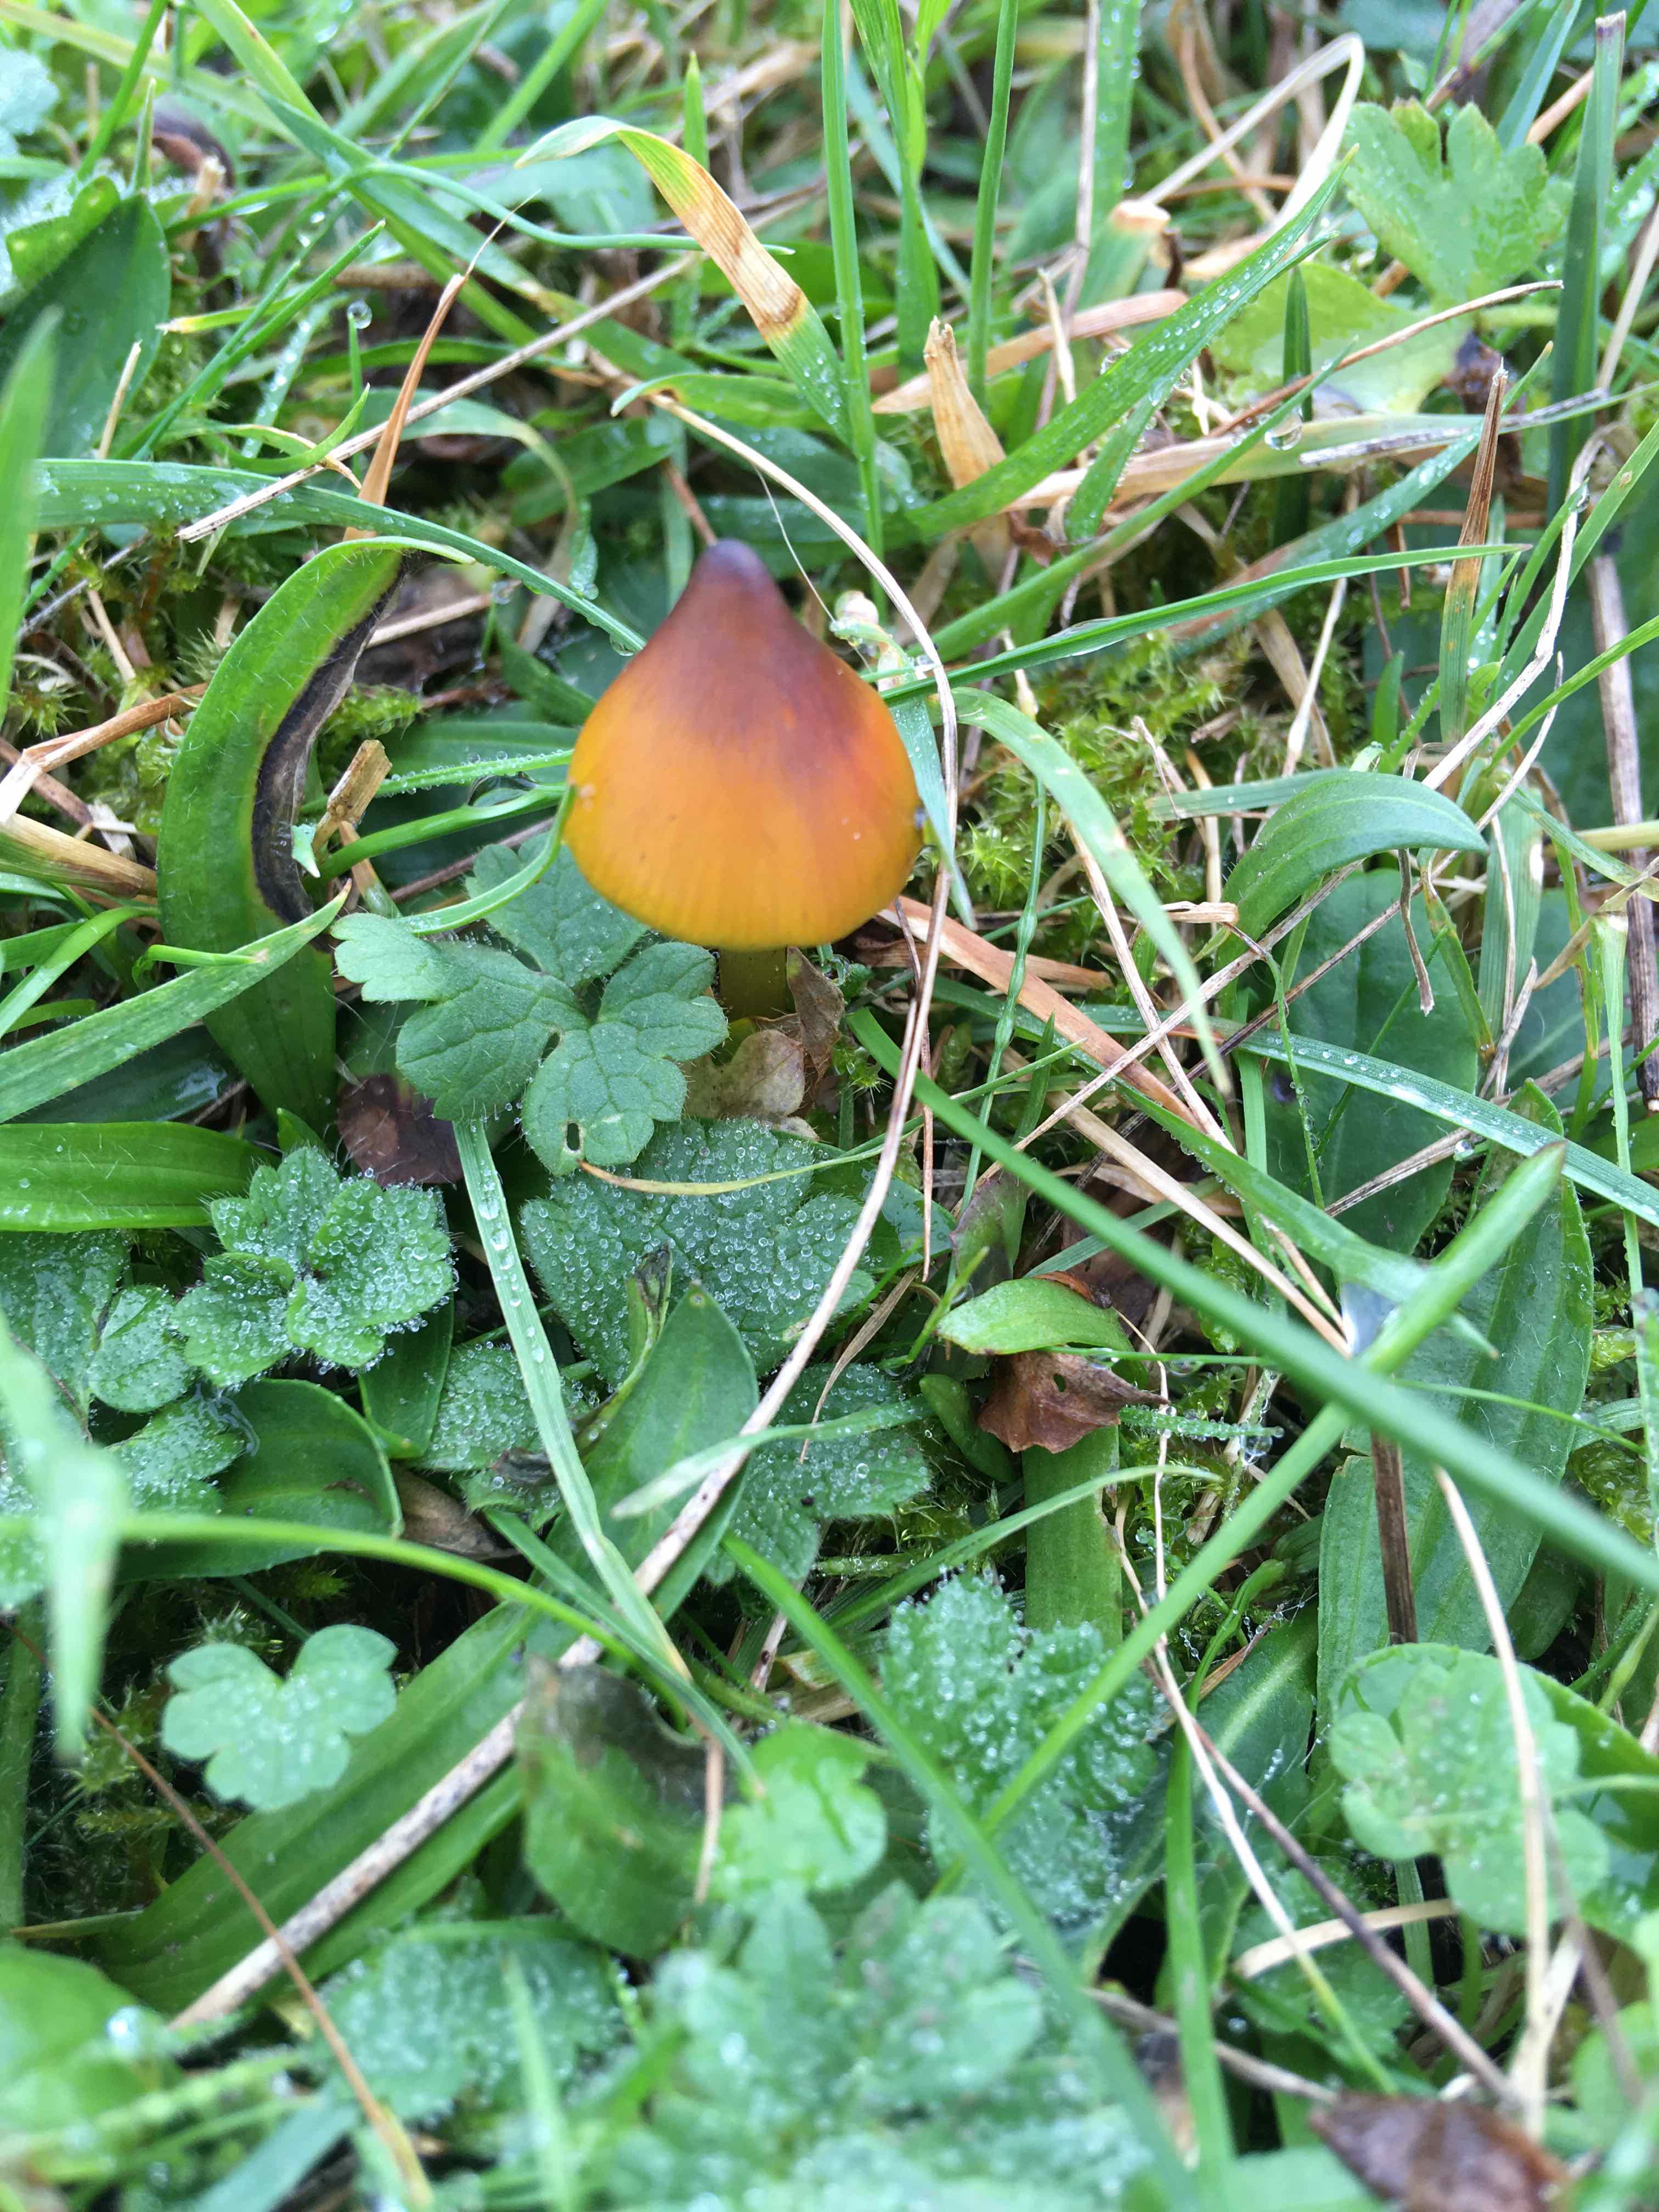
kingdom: Fungi
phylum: Basidiomycota
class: Agaricomycetes
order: Agaricales
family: Hygrophoraceae
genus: Hygrocybe
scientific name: Hygrocybe conica
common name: kegle-vokshat
